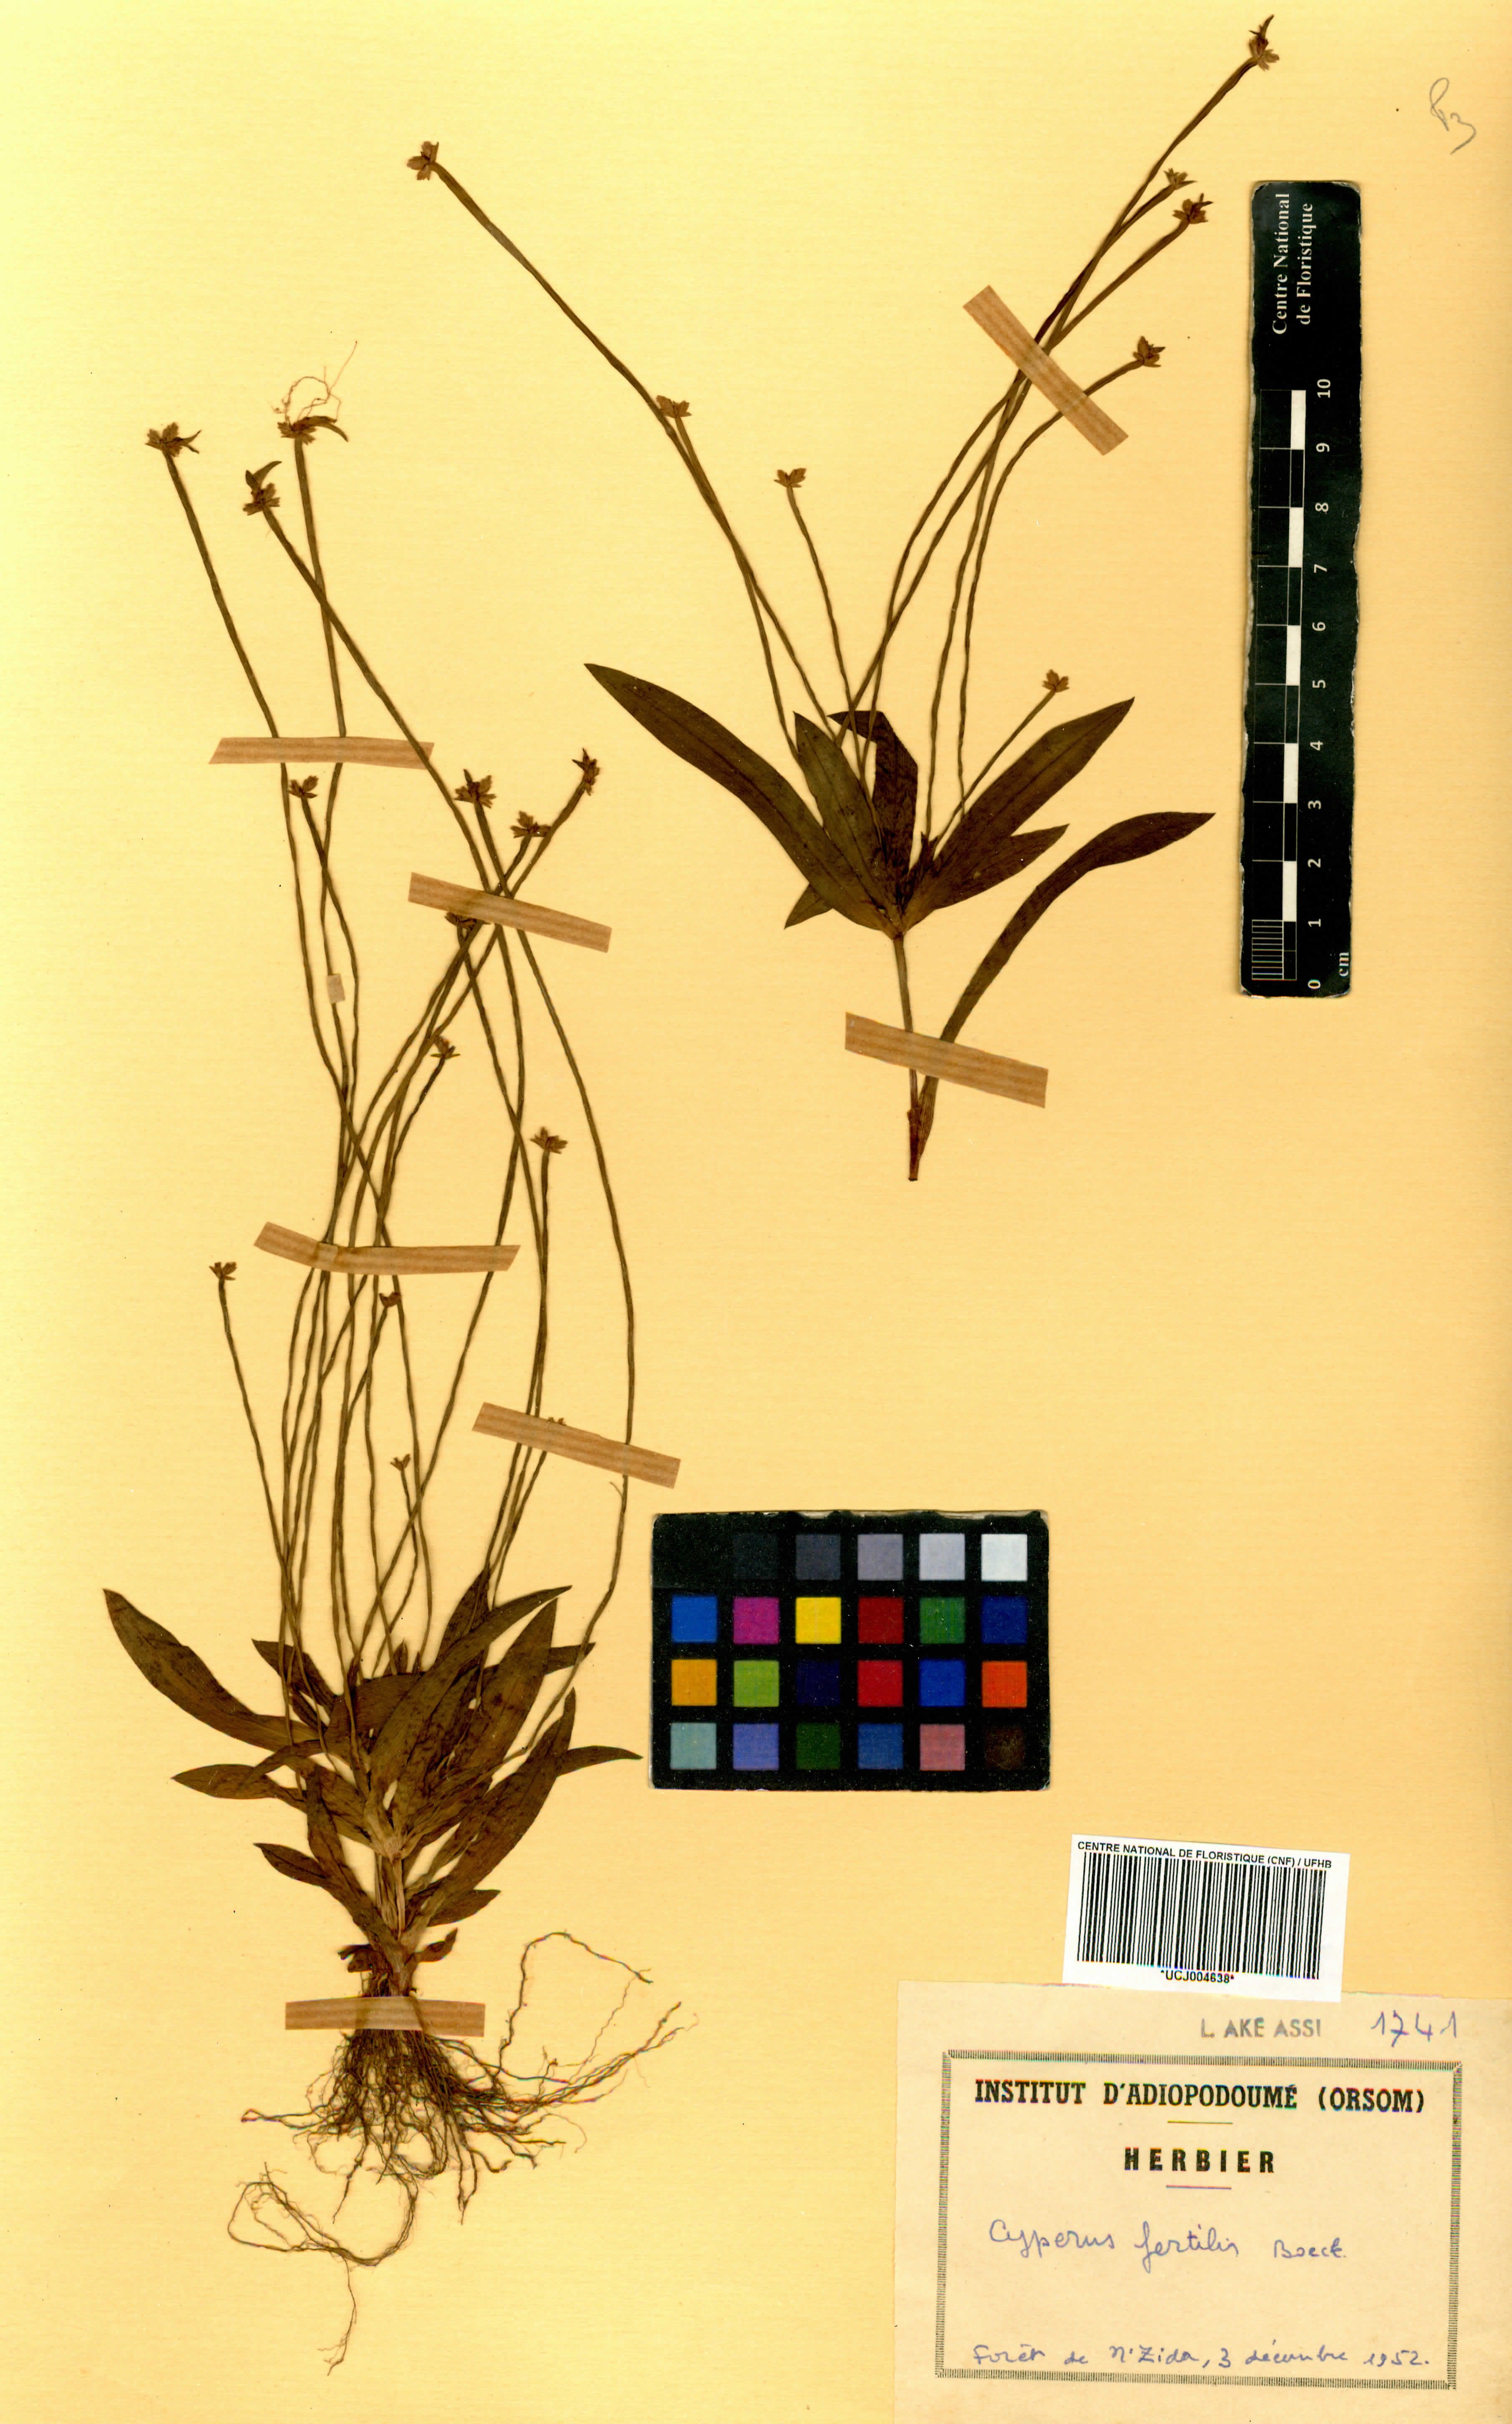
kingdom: Plantae
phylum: Tracheophyta
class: Liliopsida
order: Poales
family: Cyperaceae
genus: Cyperus
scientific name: Cyperus fertilis
